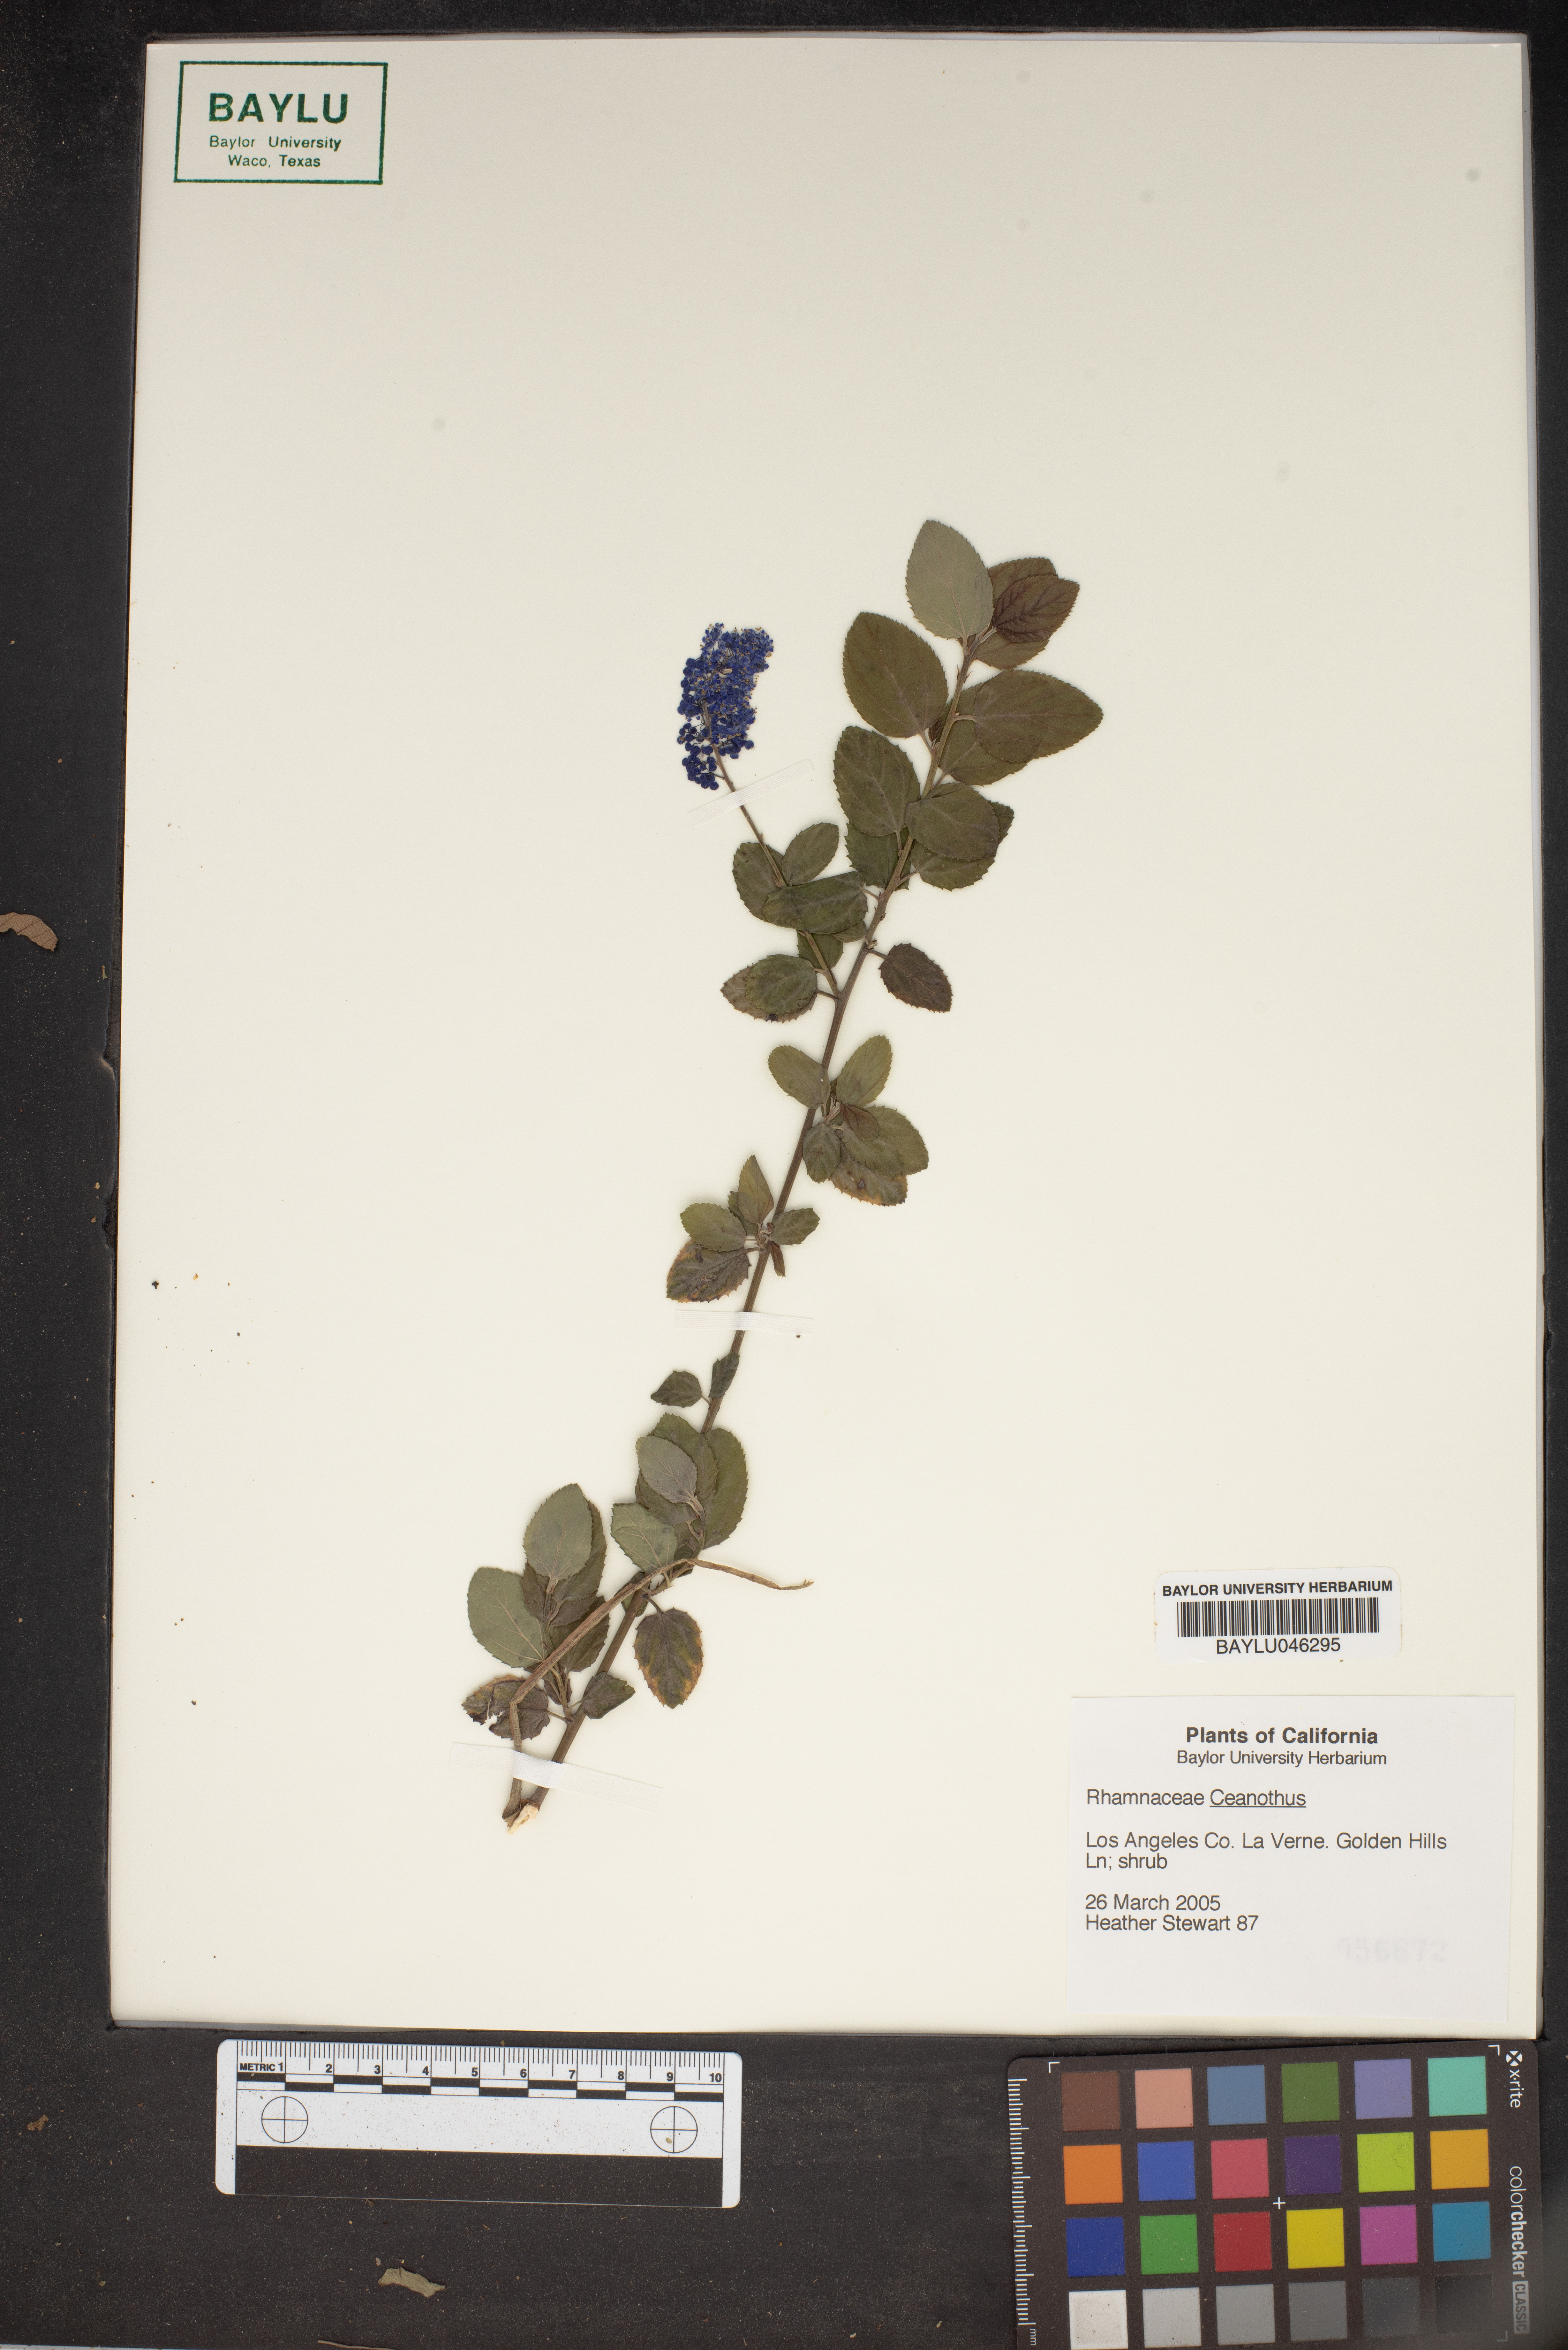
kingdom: Plantae
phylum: Tracheophyta
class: Magnoliopsida
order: Rosales
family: Rhamnaceae
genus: Ceanothus
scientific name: Ceanothus
